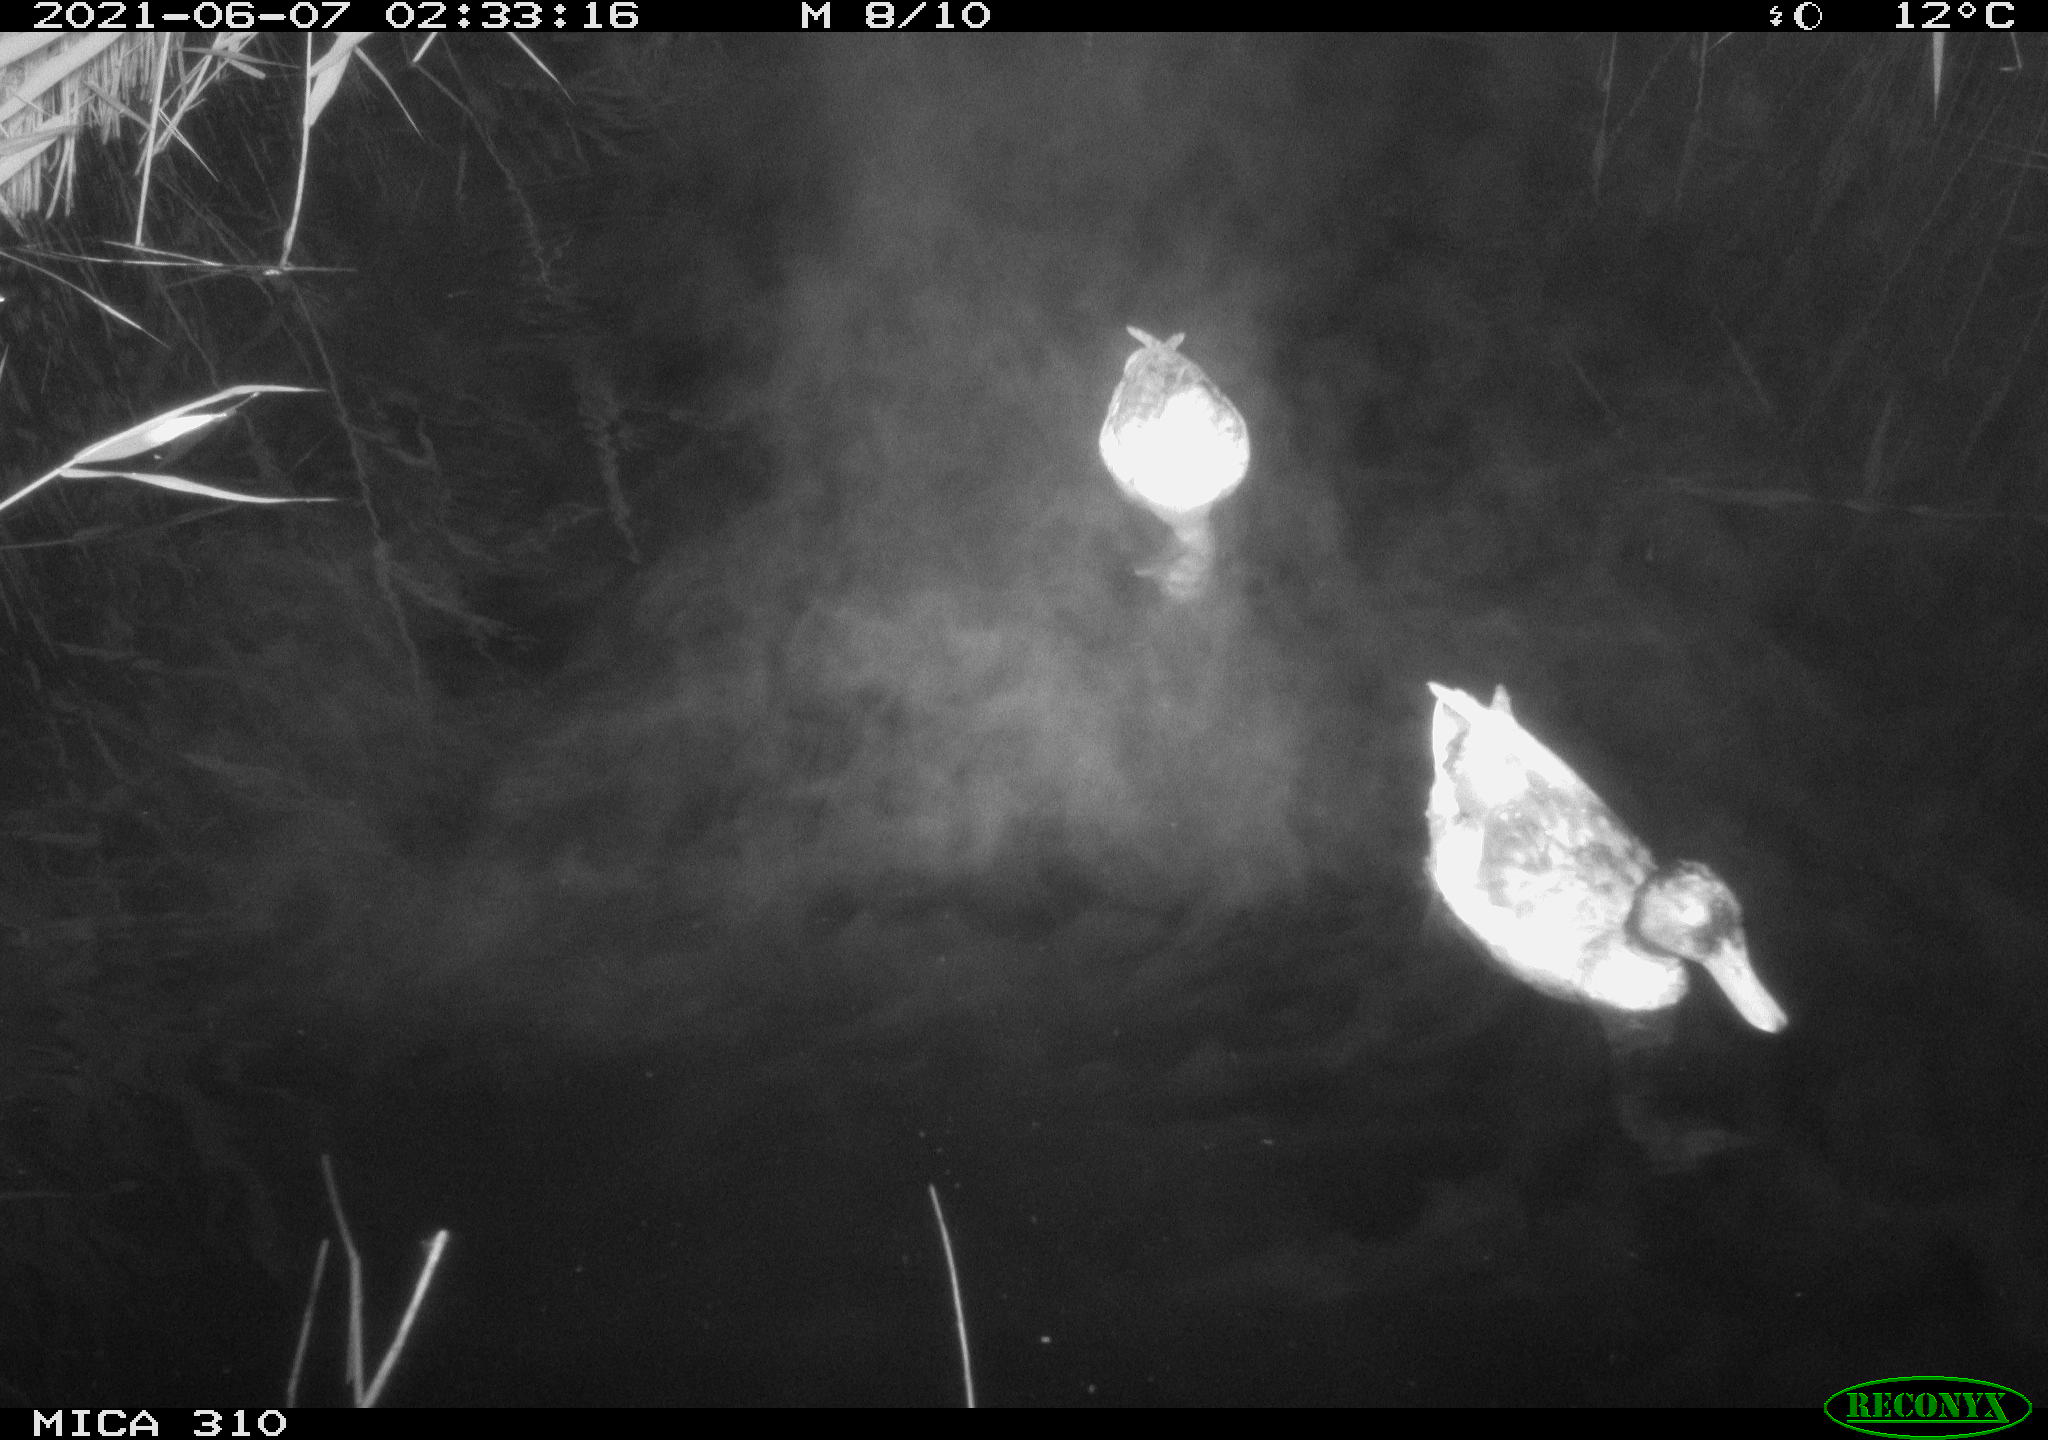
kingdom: Animalia
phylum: Chordata
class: Aves
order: Anseriformes
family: Anatidae
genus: Anas
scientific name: Anas
